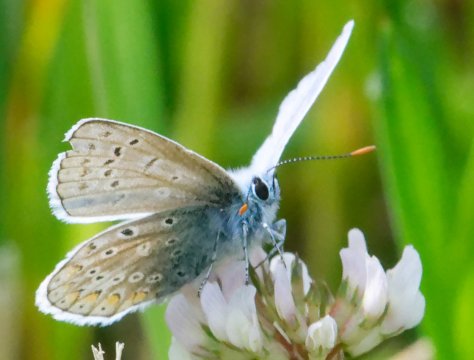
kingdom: Animalia
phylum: Arthropoda
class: Insecta
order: Lepidoptera
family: Lycaenidae
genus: Polyommatus
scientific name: Polyommatus icarus
